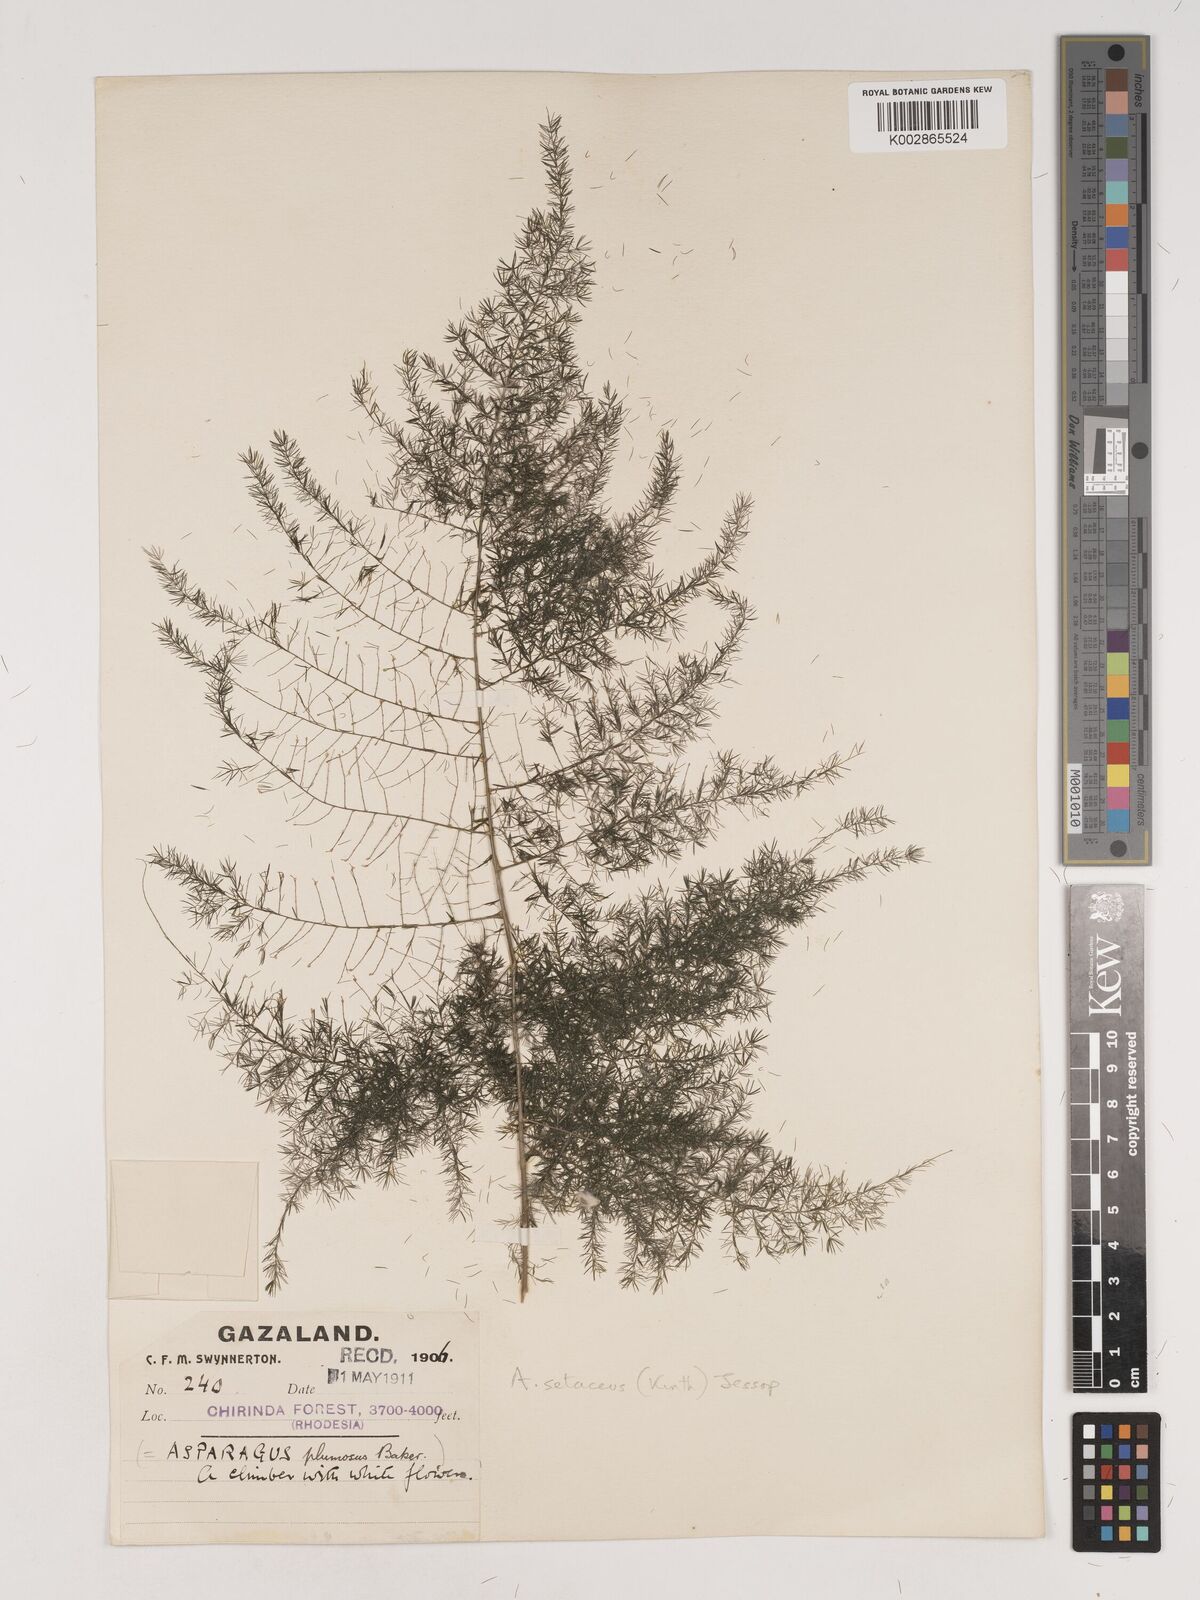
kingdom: Plantae
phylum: Tracheophyta
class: Liliopsida
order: Asparagales
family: Asparagaceae
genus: Asparagus
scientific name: Asparagus setaceus
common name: Common asparagus fern
